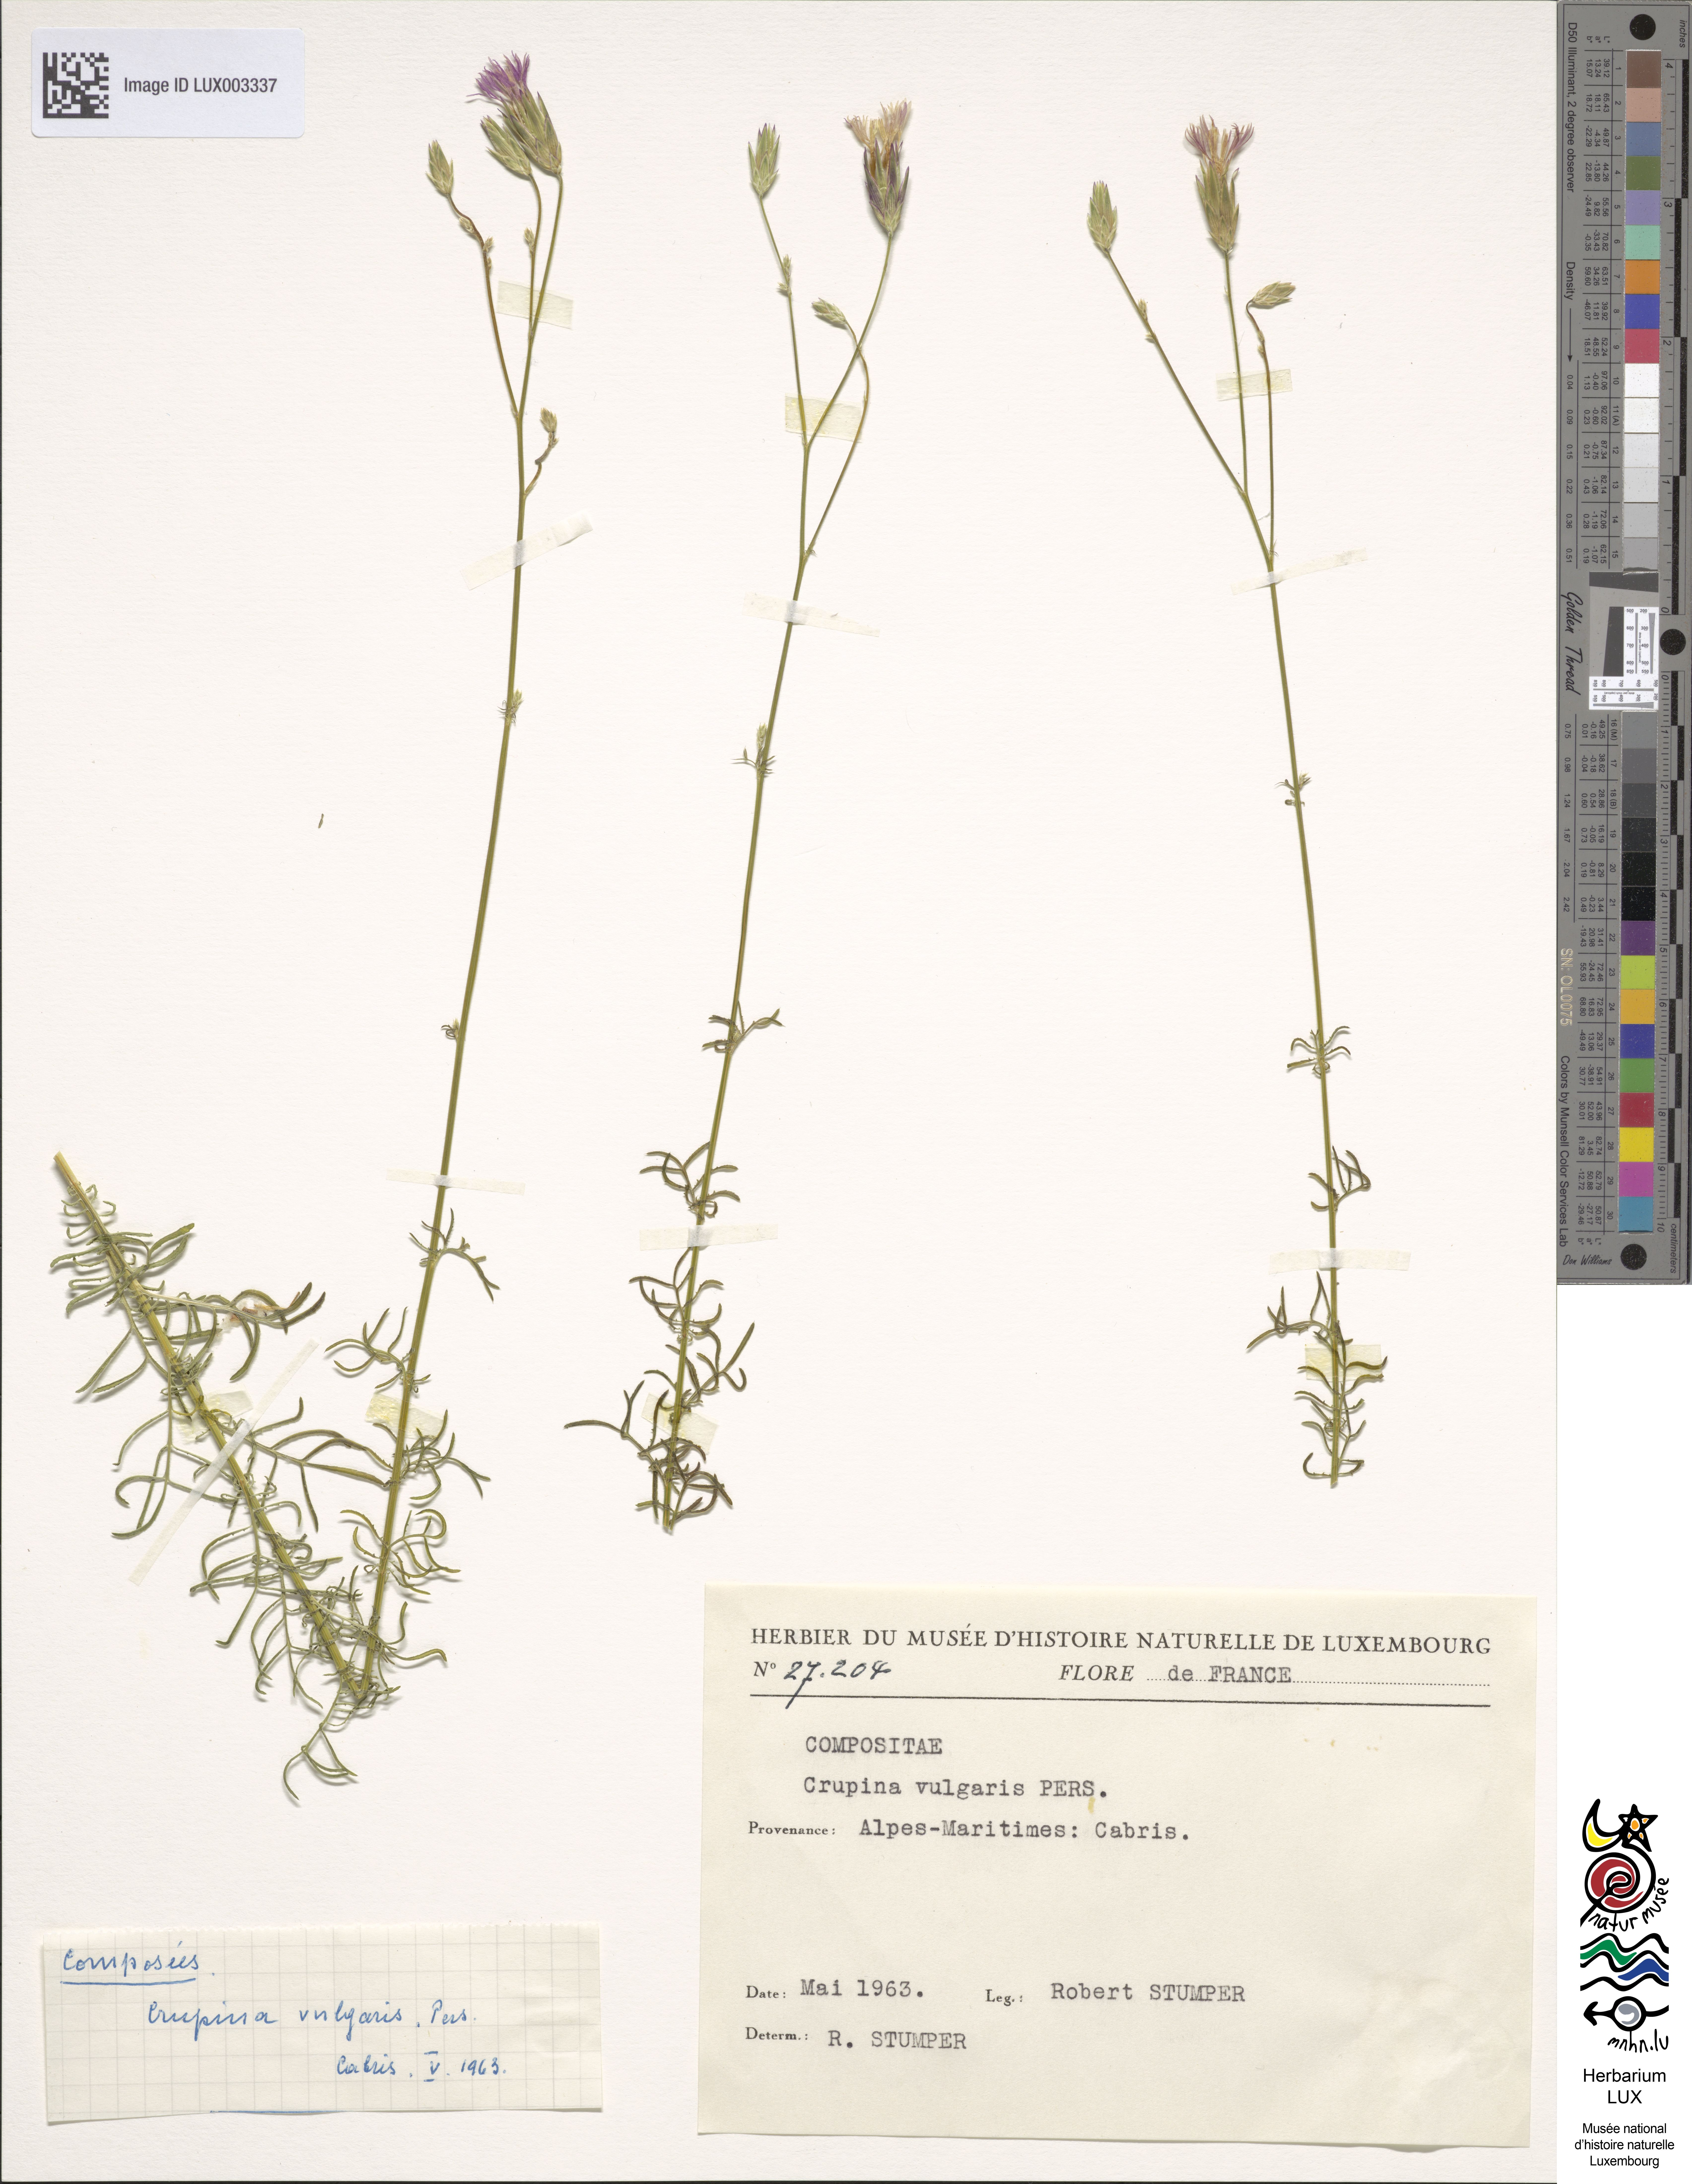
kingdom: Plantae
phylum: Tracheophyta
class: Magnoliopsida
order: Asterales
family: Asteraceae
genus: Crupina
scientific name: Crupina vulgaris
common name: Common crupina
